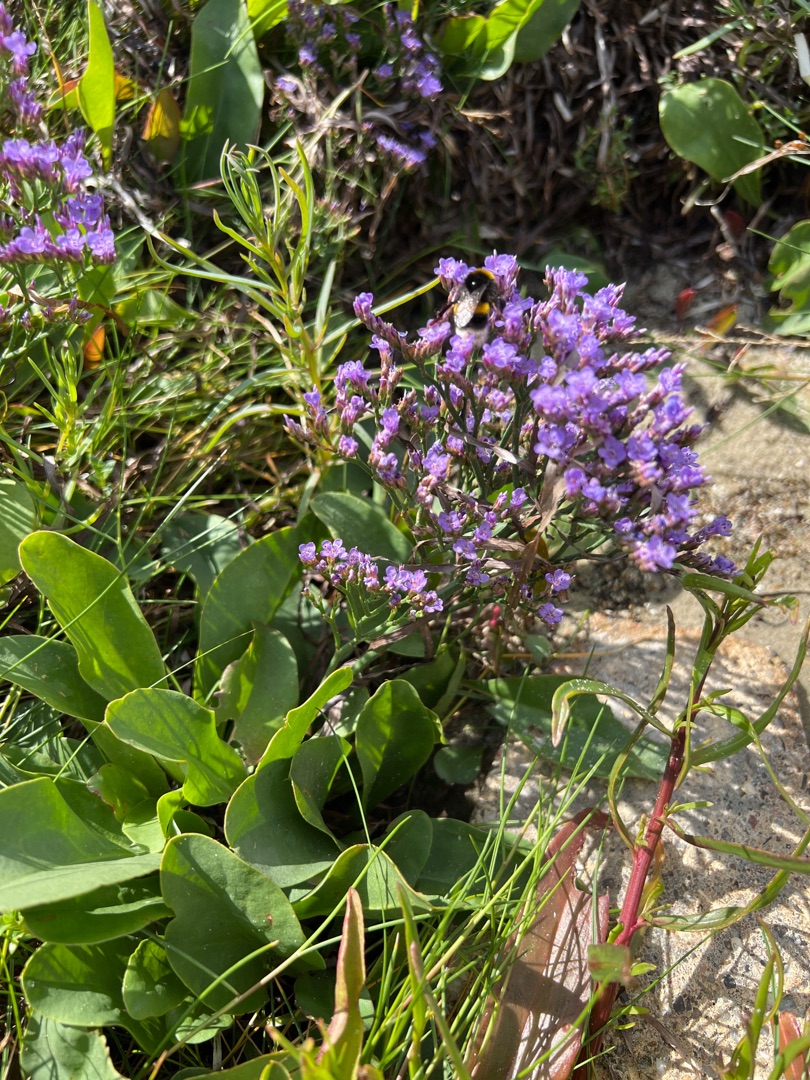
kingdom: Plantae
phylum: Tracheophyta
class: Magnoliopsida
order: Caryophyllales
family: Plumbaginaceae
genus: Limonium
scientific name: Limonium
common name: Lav hindebæger × tætblomstret hindebæger
